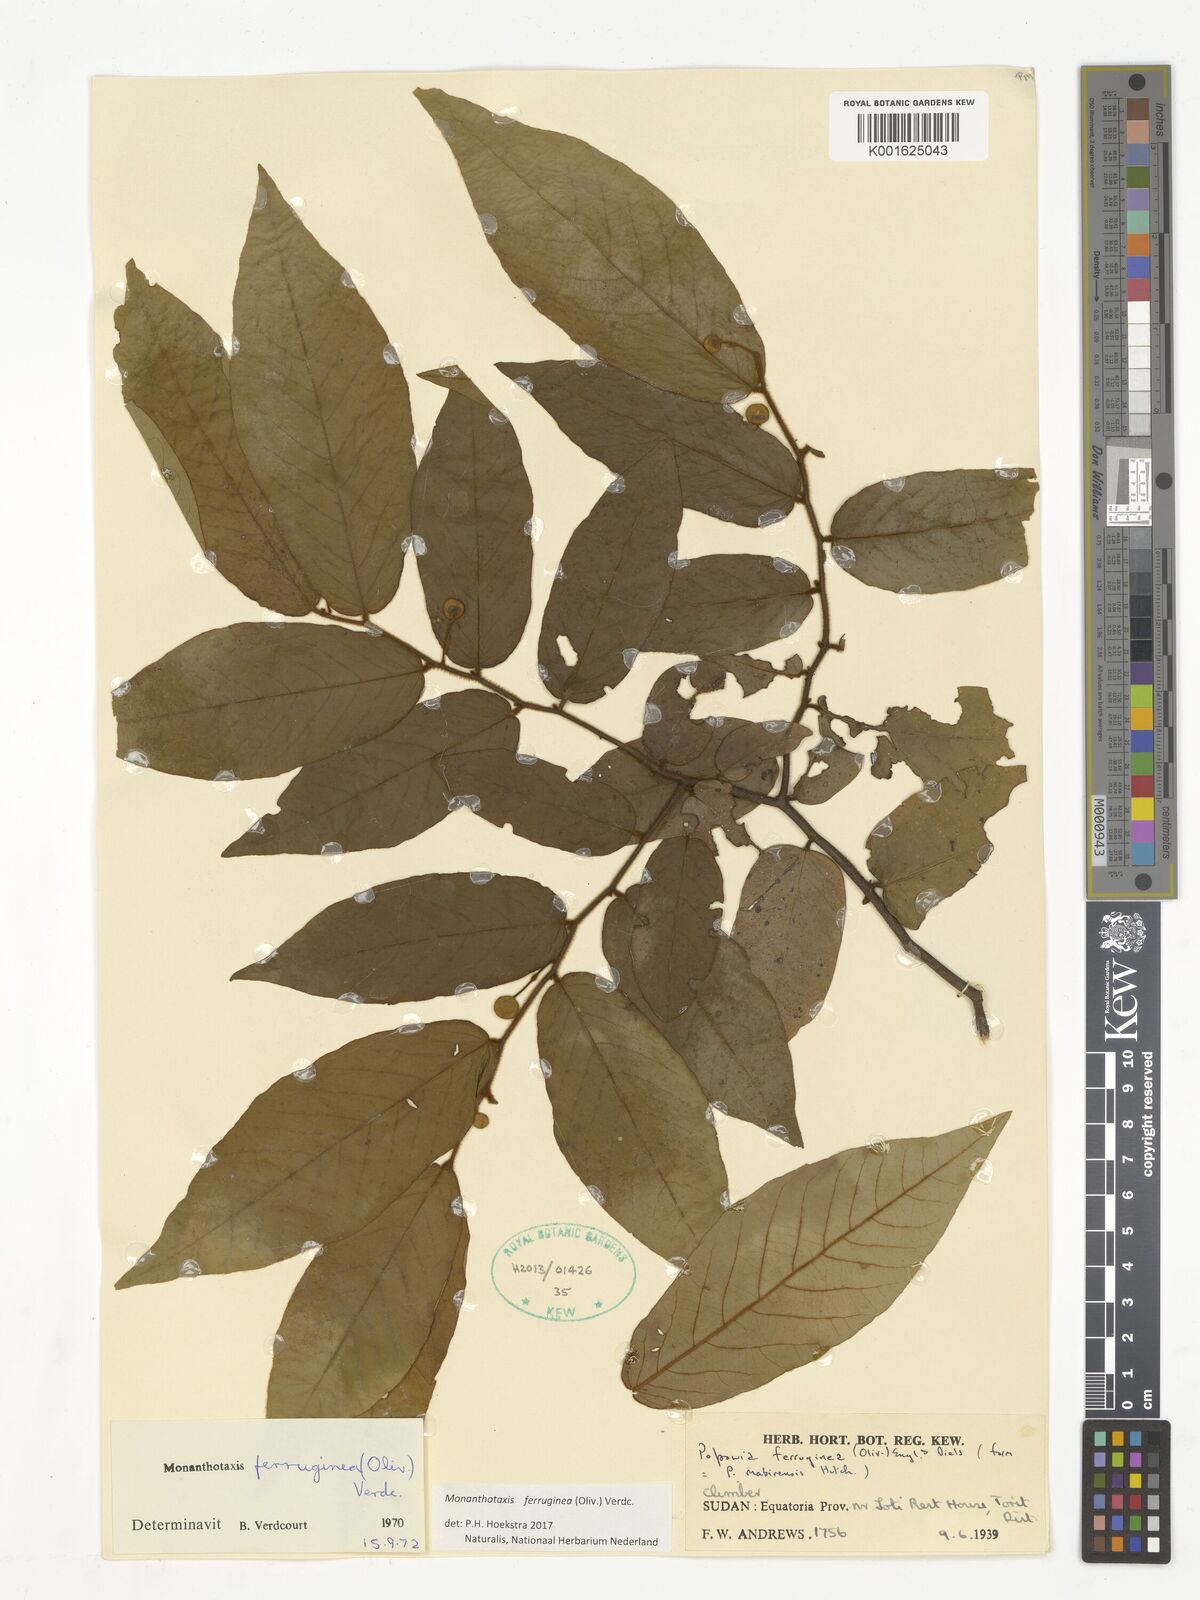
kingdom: Plantae
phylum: Tracheophyta
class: Magnoliopsida
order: Magnoliales
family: Annonaceae
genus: Monanthotaxis
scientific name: Monanthotaxis ferruginea
